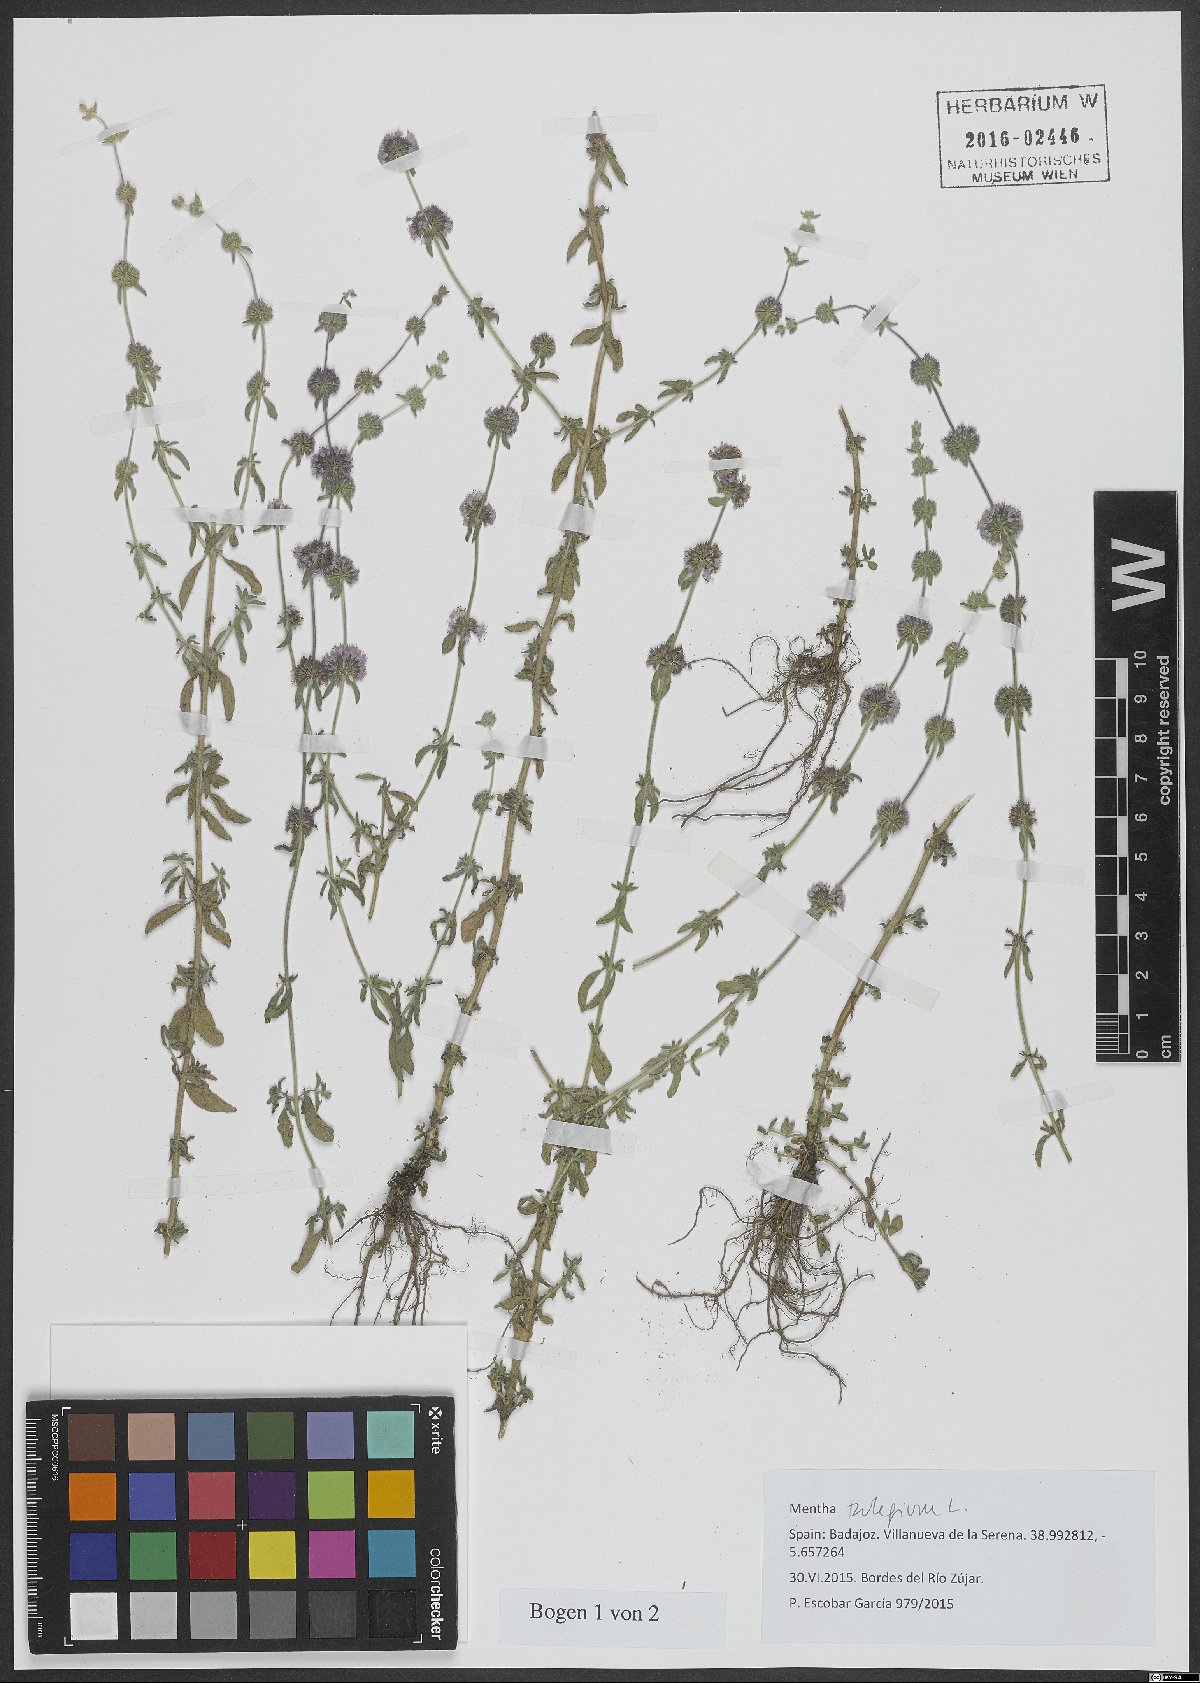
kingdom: Plantae
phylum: Tracheophyta
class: Magnoliopsida
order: Lamiales
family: Lamiaceae
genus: Mentha
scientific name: Mentha pulegium
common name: Pennyroyal
